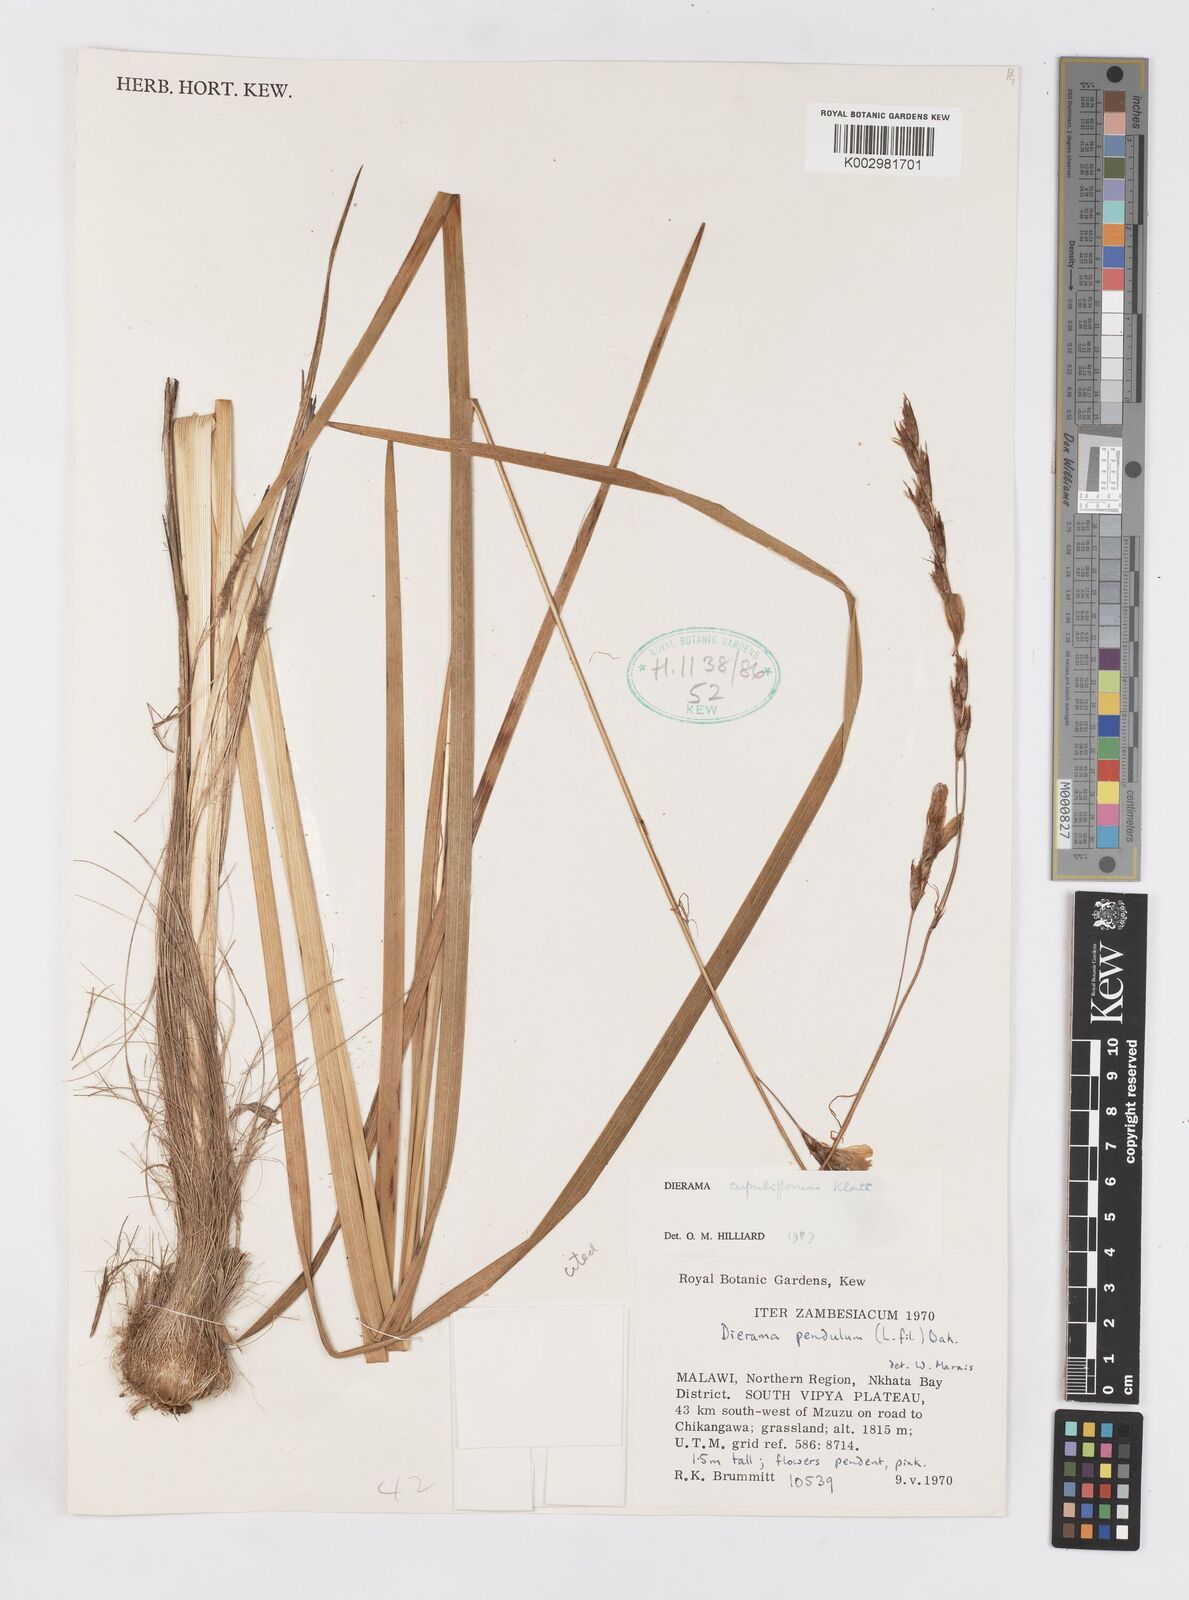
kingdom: Plantae
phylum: Tracheophyta
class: Liliopsida
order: Asparagales
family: Iridaceae
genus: Dierama
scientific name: Dierama cupuliflorum
